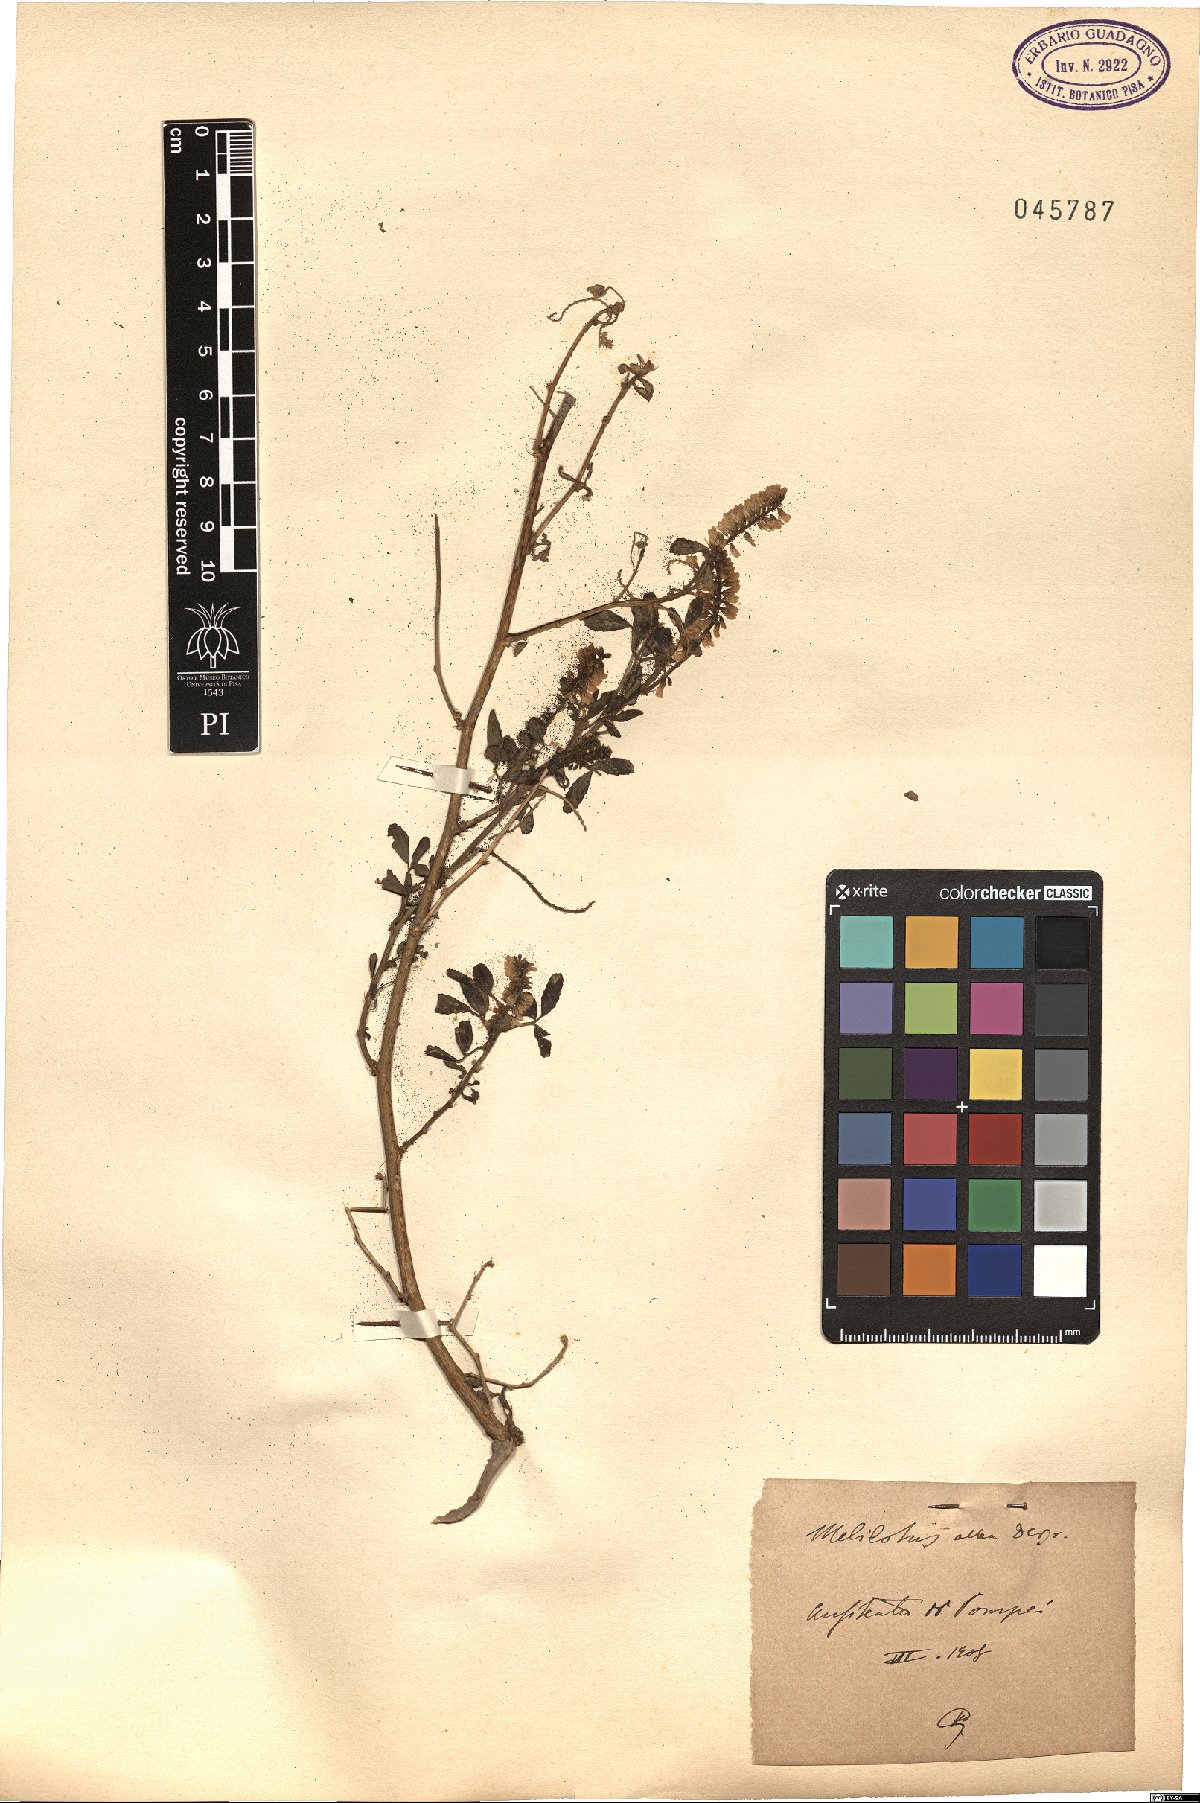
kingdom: Plantae
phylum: Tracheophyta
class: Magnoliopsida
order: Fabales
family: Fabaceae
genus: Melilotus
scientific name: Melilotus albus
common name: White melilot
